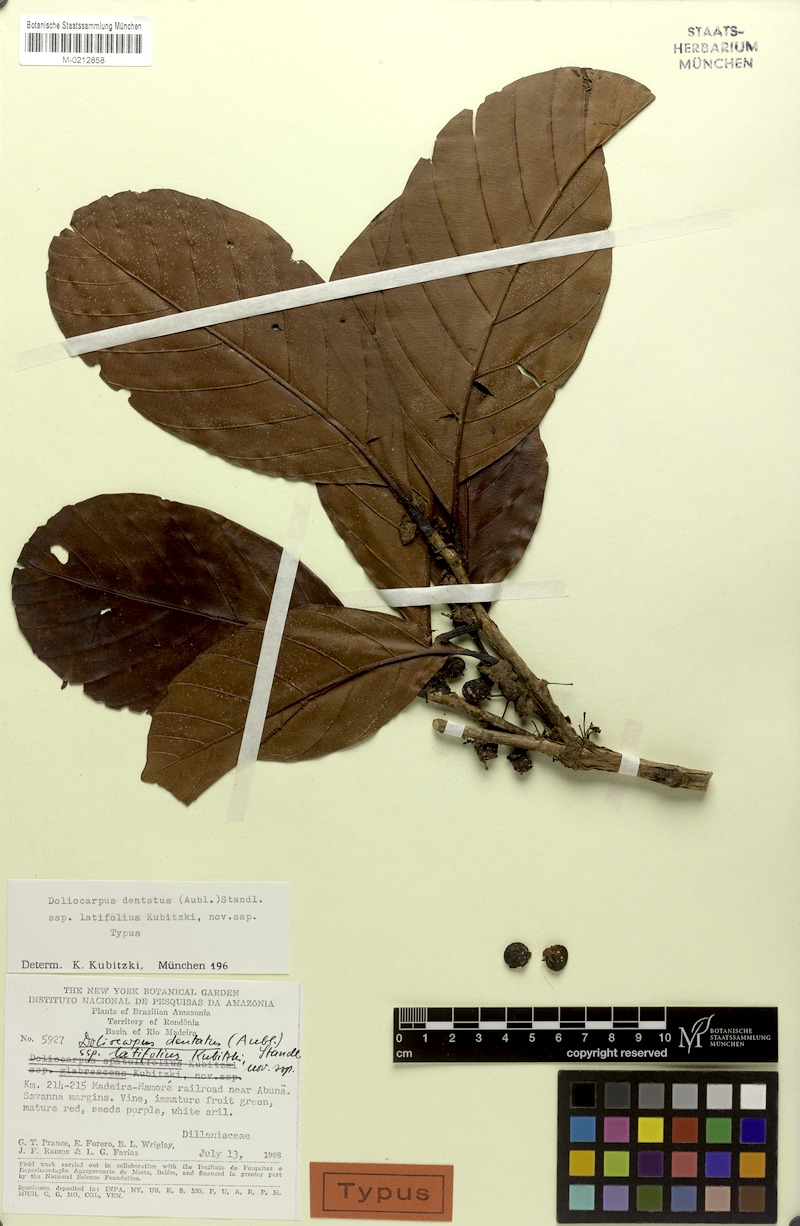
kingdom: Plantae
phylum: Tracheophyta
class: Magnoliopsida
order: Dilleniales
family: Dilleniaceae
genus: Doliocarpus
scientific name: Doliocarpus dentatus
